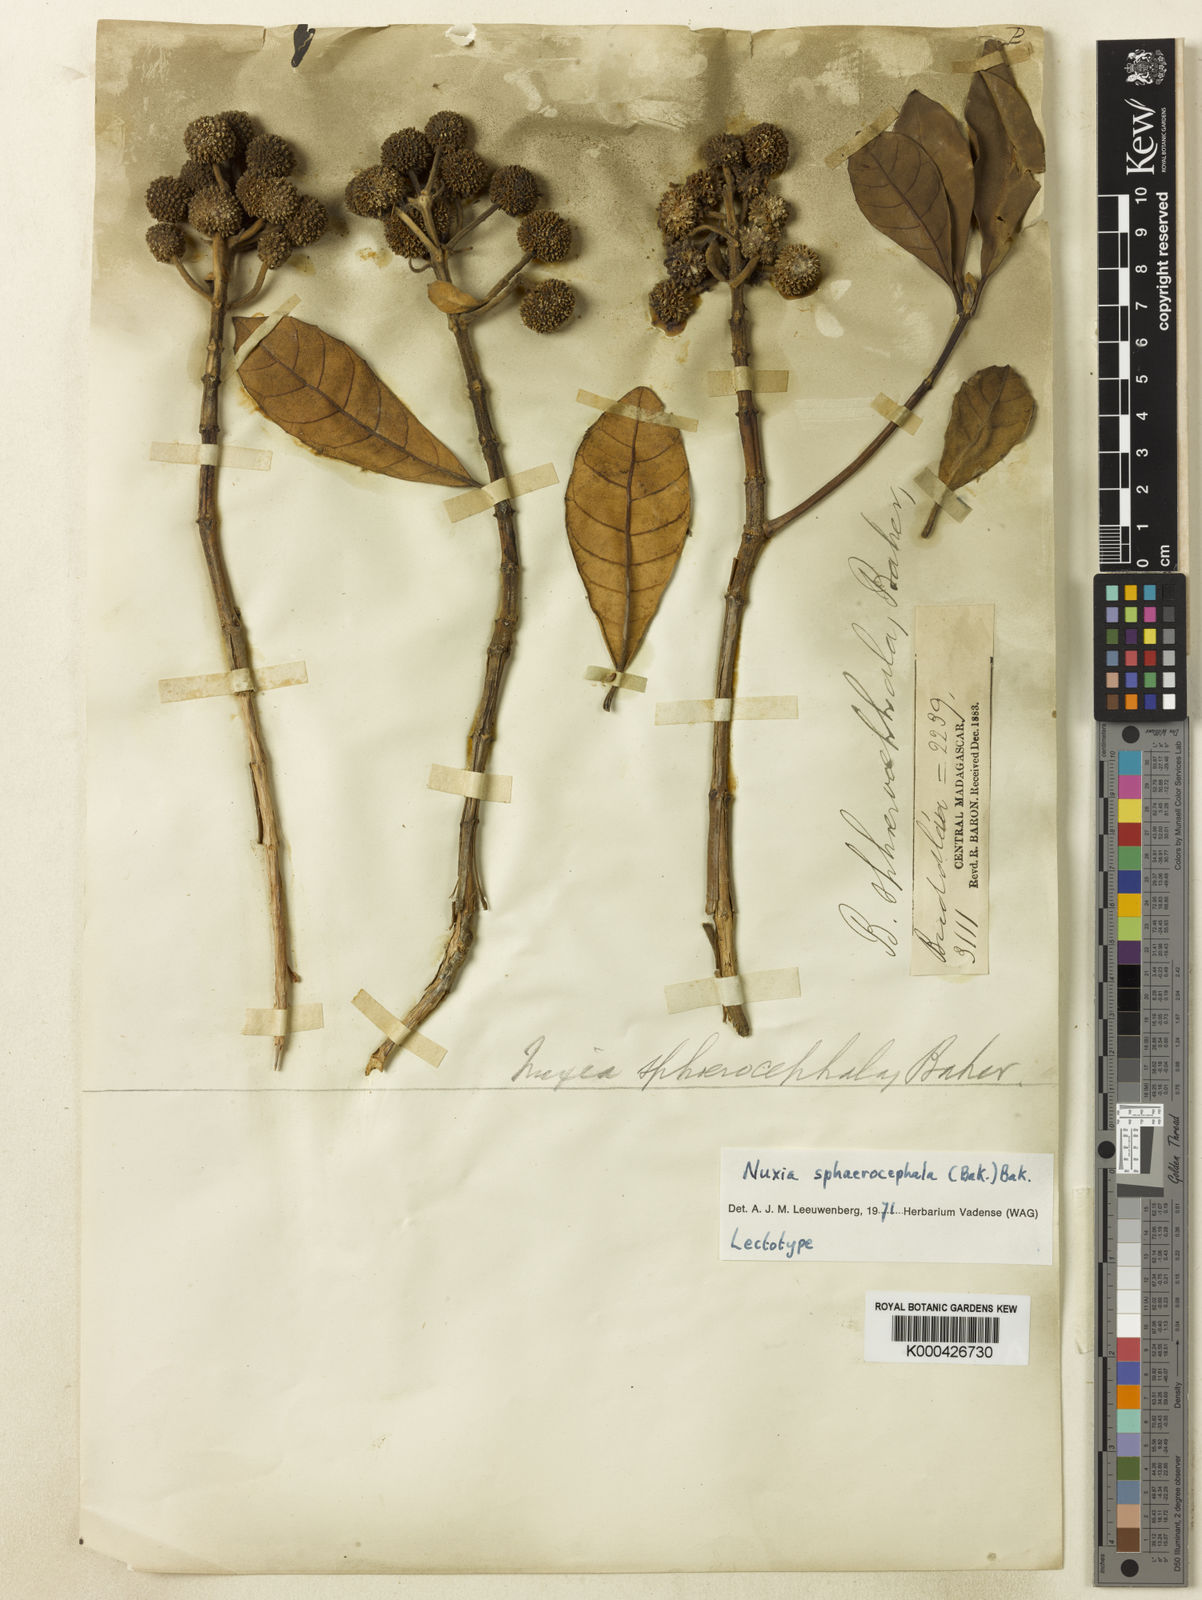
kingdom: Plantae
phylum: Tracheophyta
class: Magnoliopsida
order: Lamiales
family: Stilbaceae
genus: Nuxia
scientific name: Nuxia sphaerocephala
